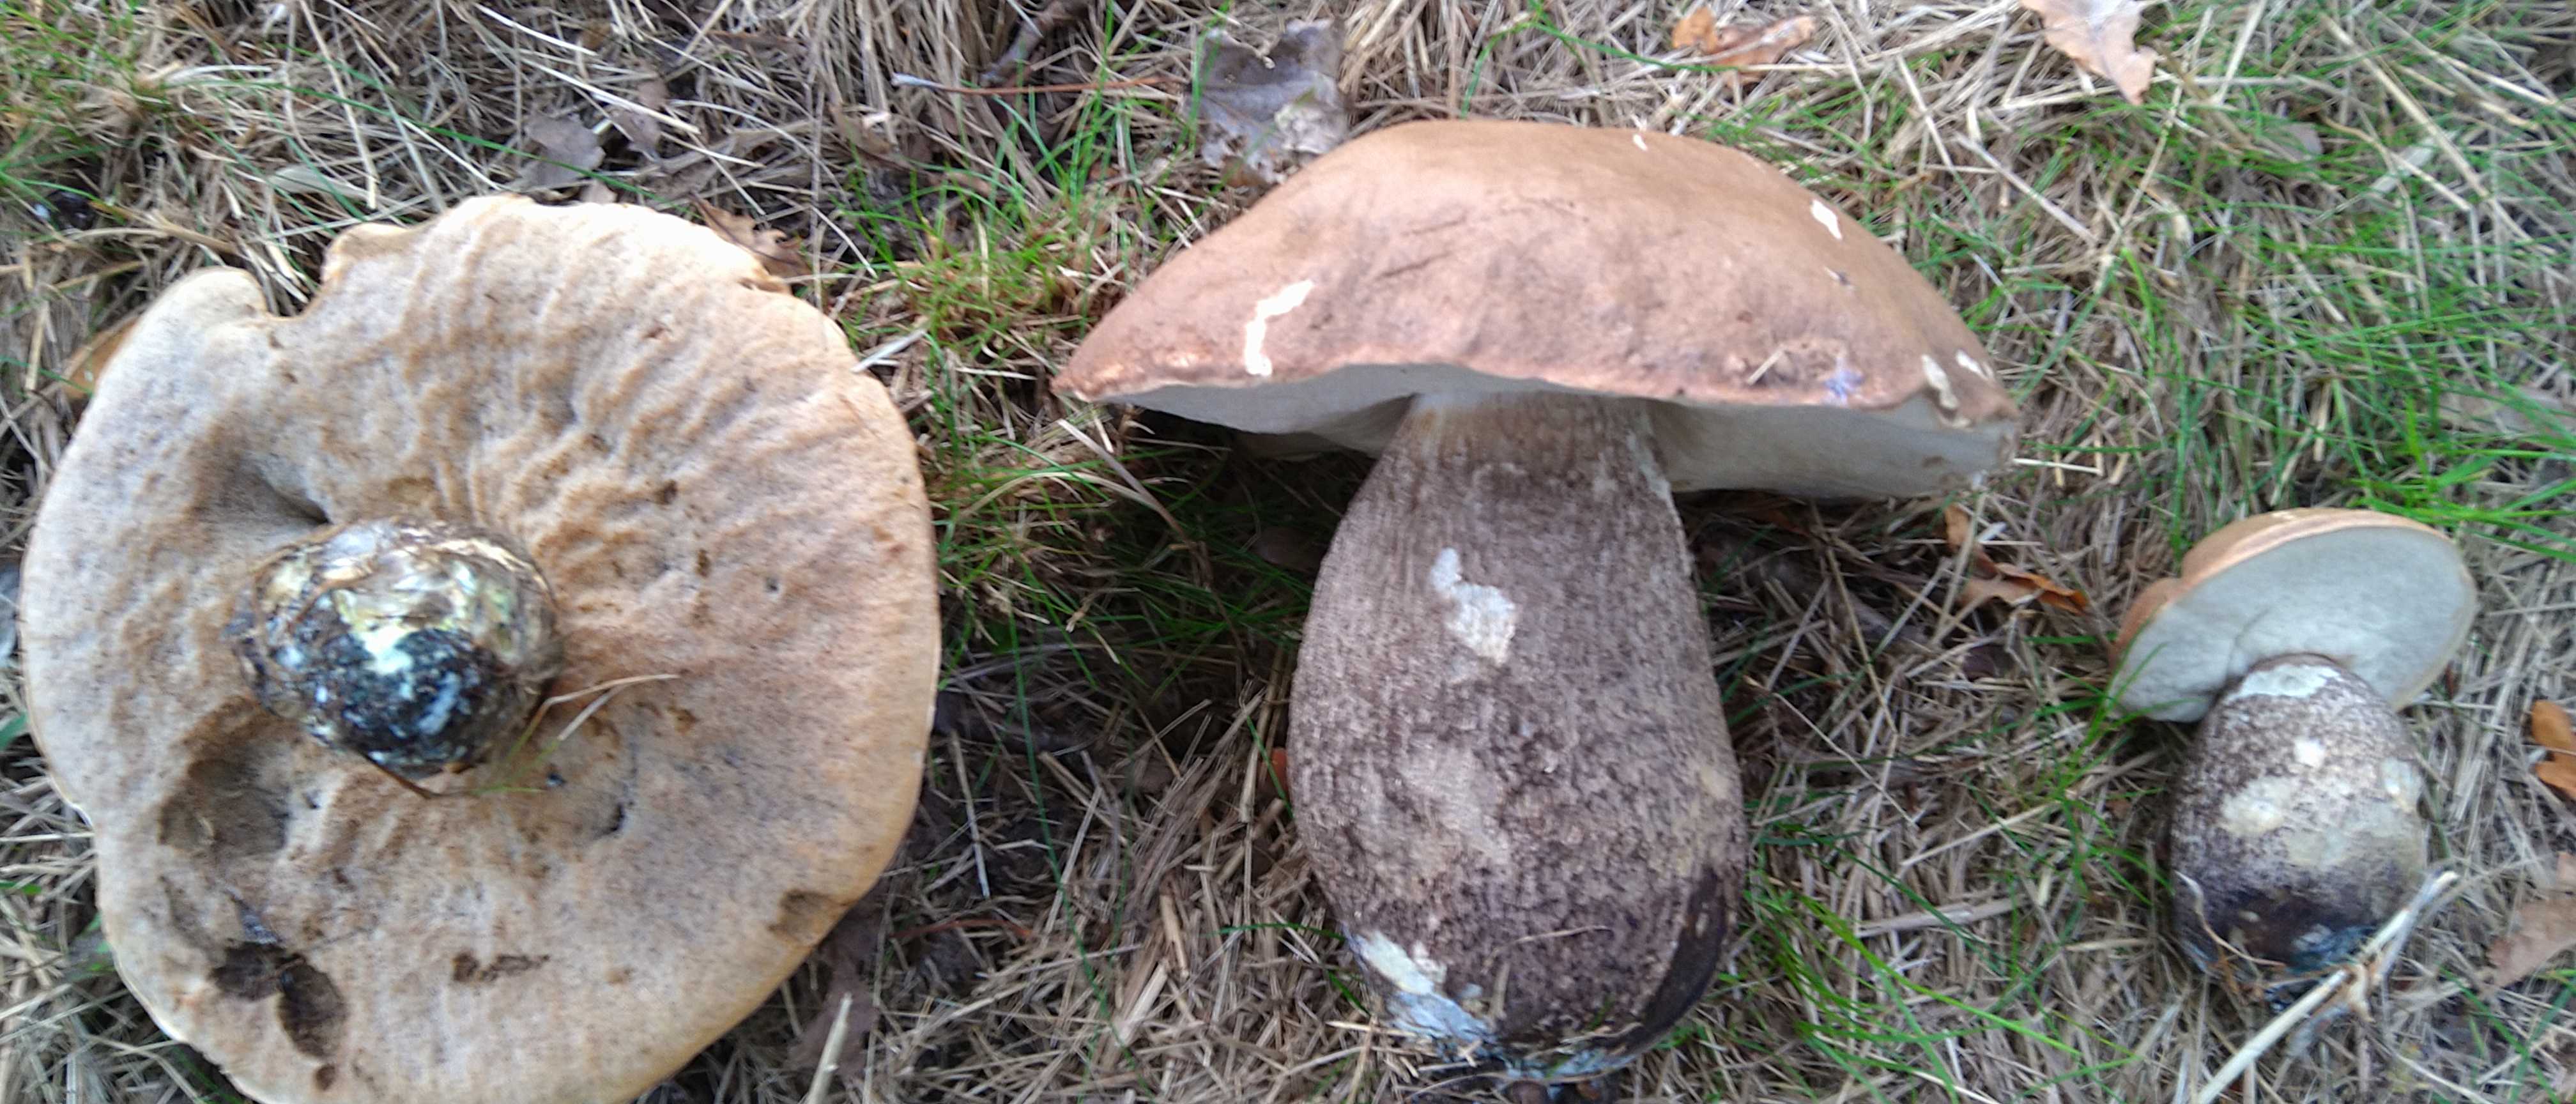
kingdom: Fungi
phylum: Basidiomycota
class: Agaricomycetes
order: Boletales
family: Boletaceae
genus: Leccinum
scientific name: Leccinum duriusculum
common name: poppel-skælrørhat
